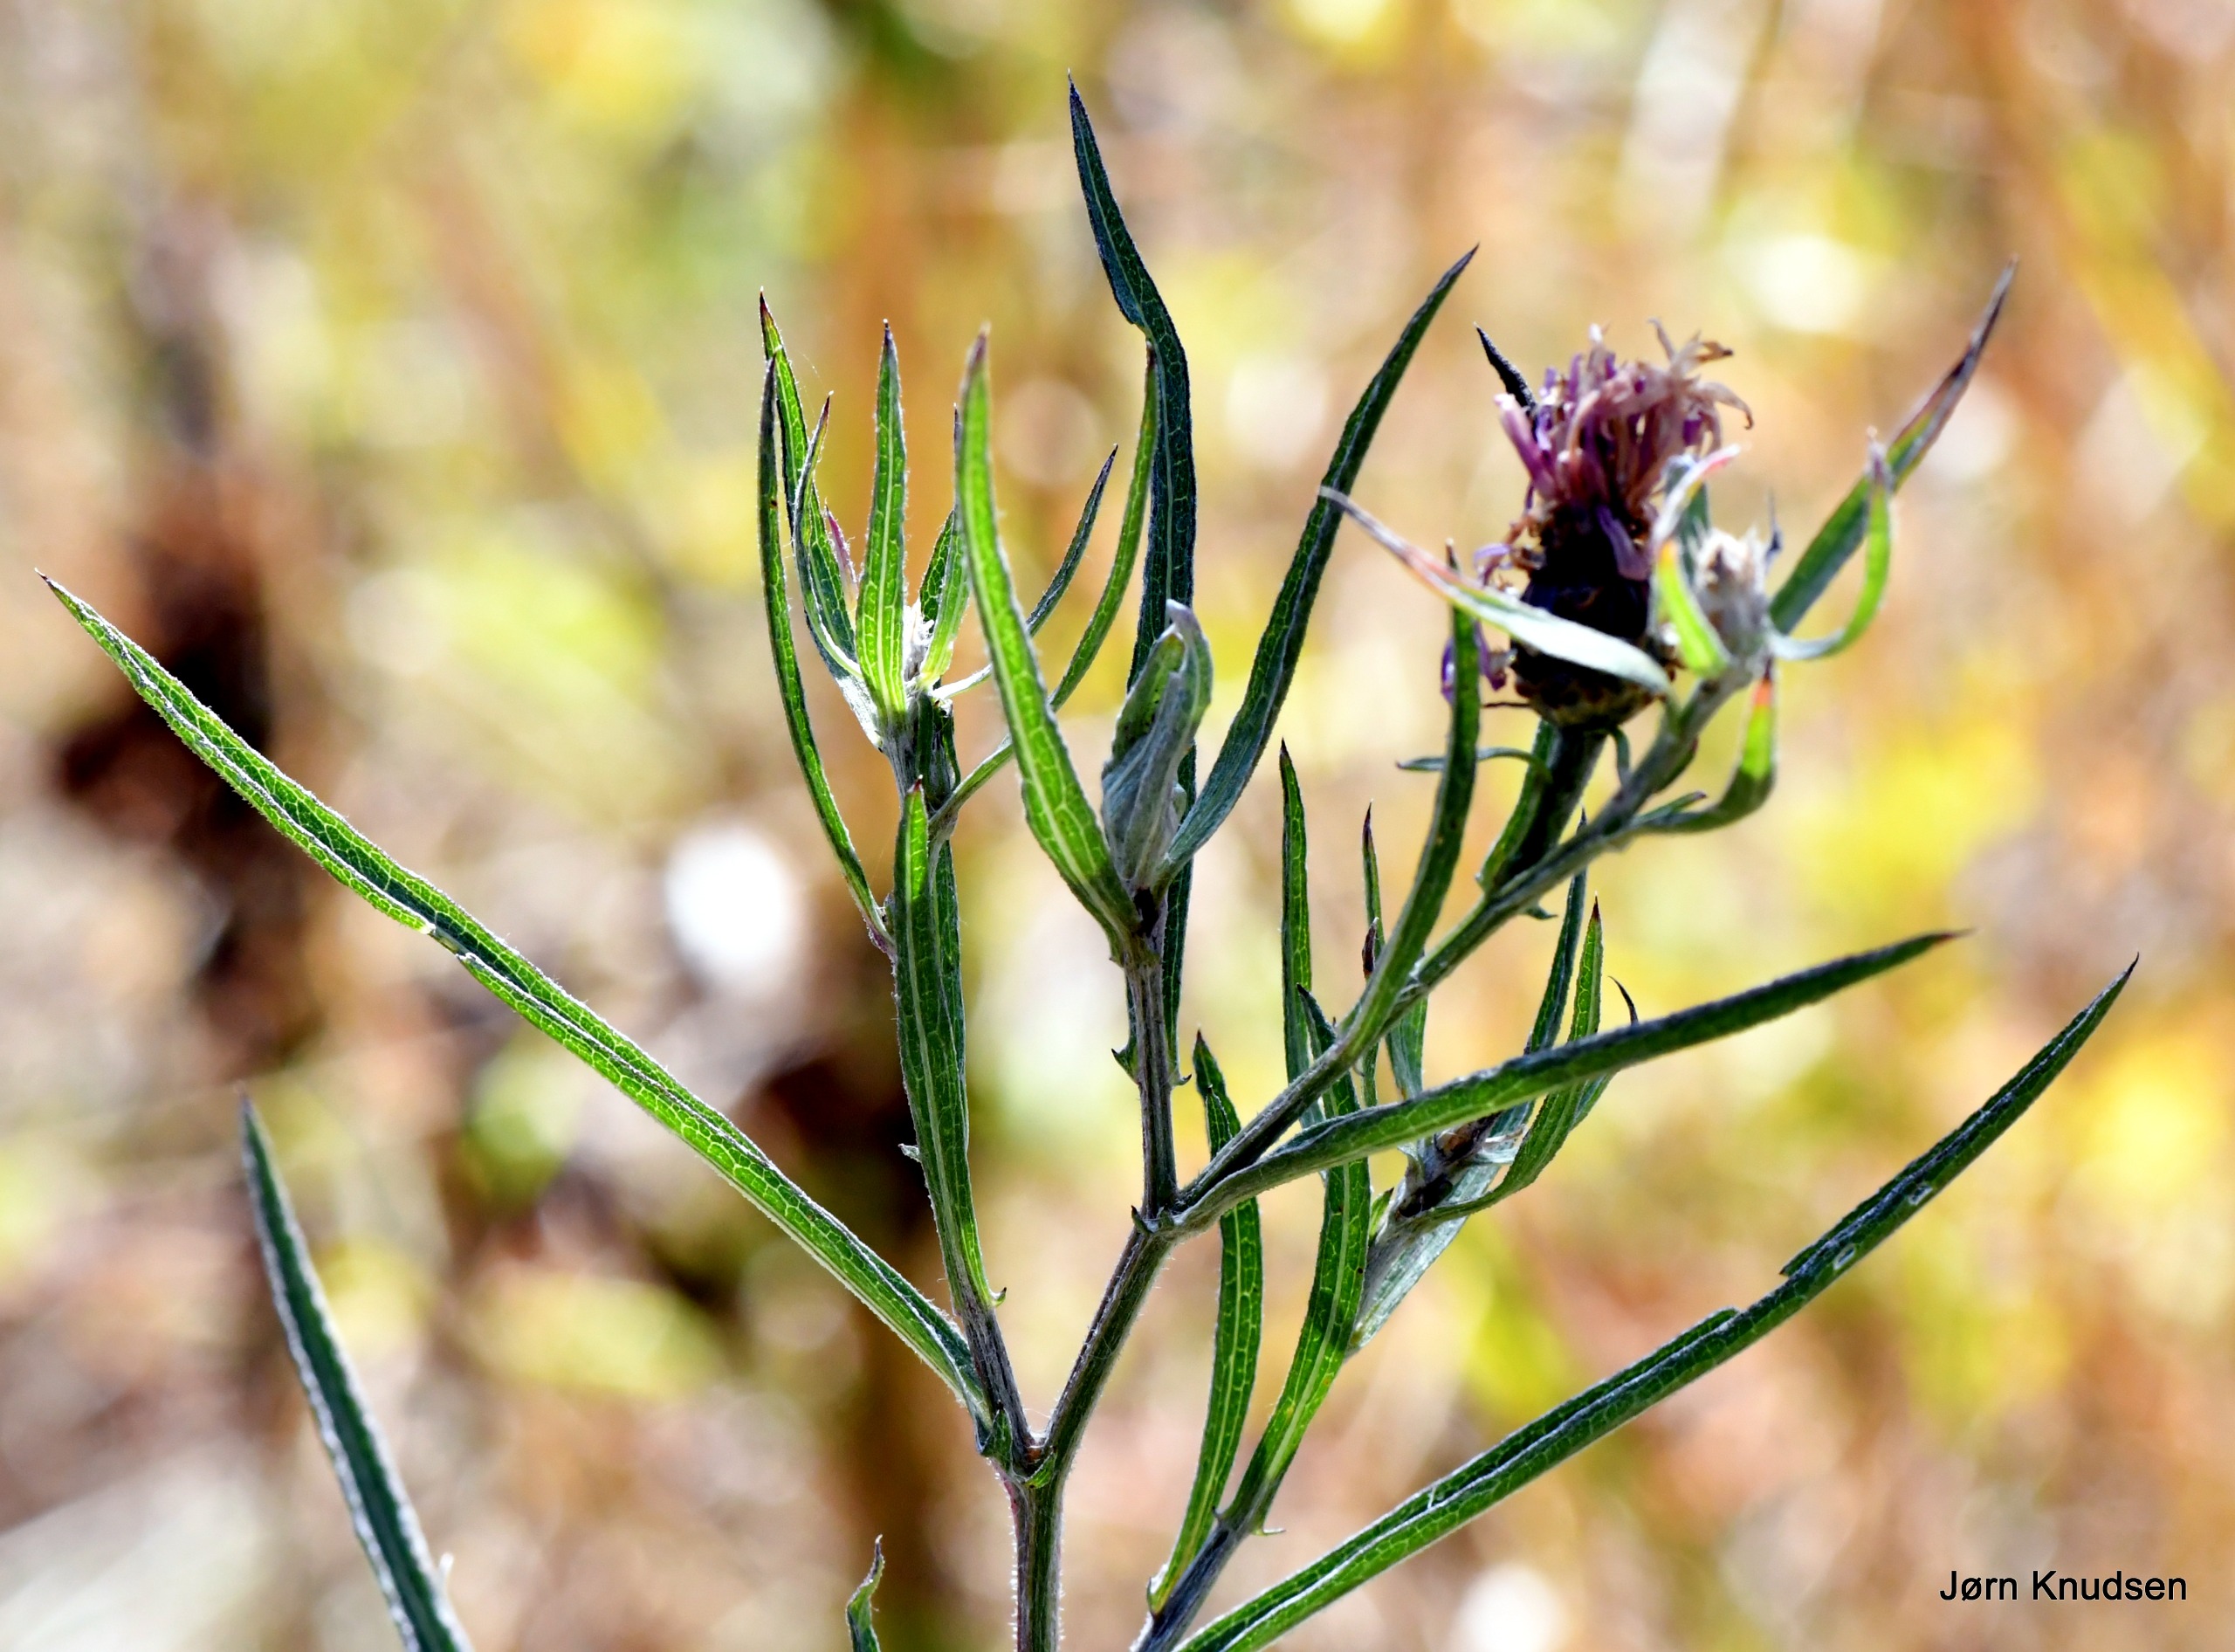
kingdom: Plantae
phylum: Tracheophyta
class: Magnoliopsida
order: Asterales
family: Asteraceae
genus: Centaurea
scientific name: Centaurea jacea
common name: Smalbladet knopurt
